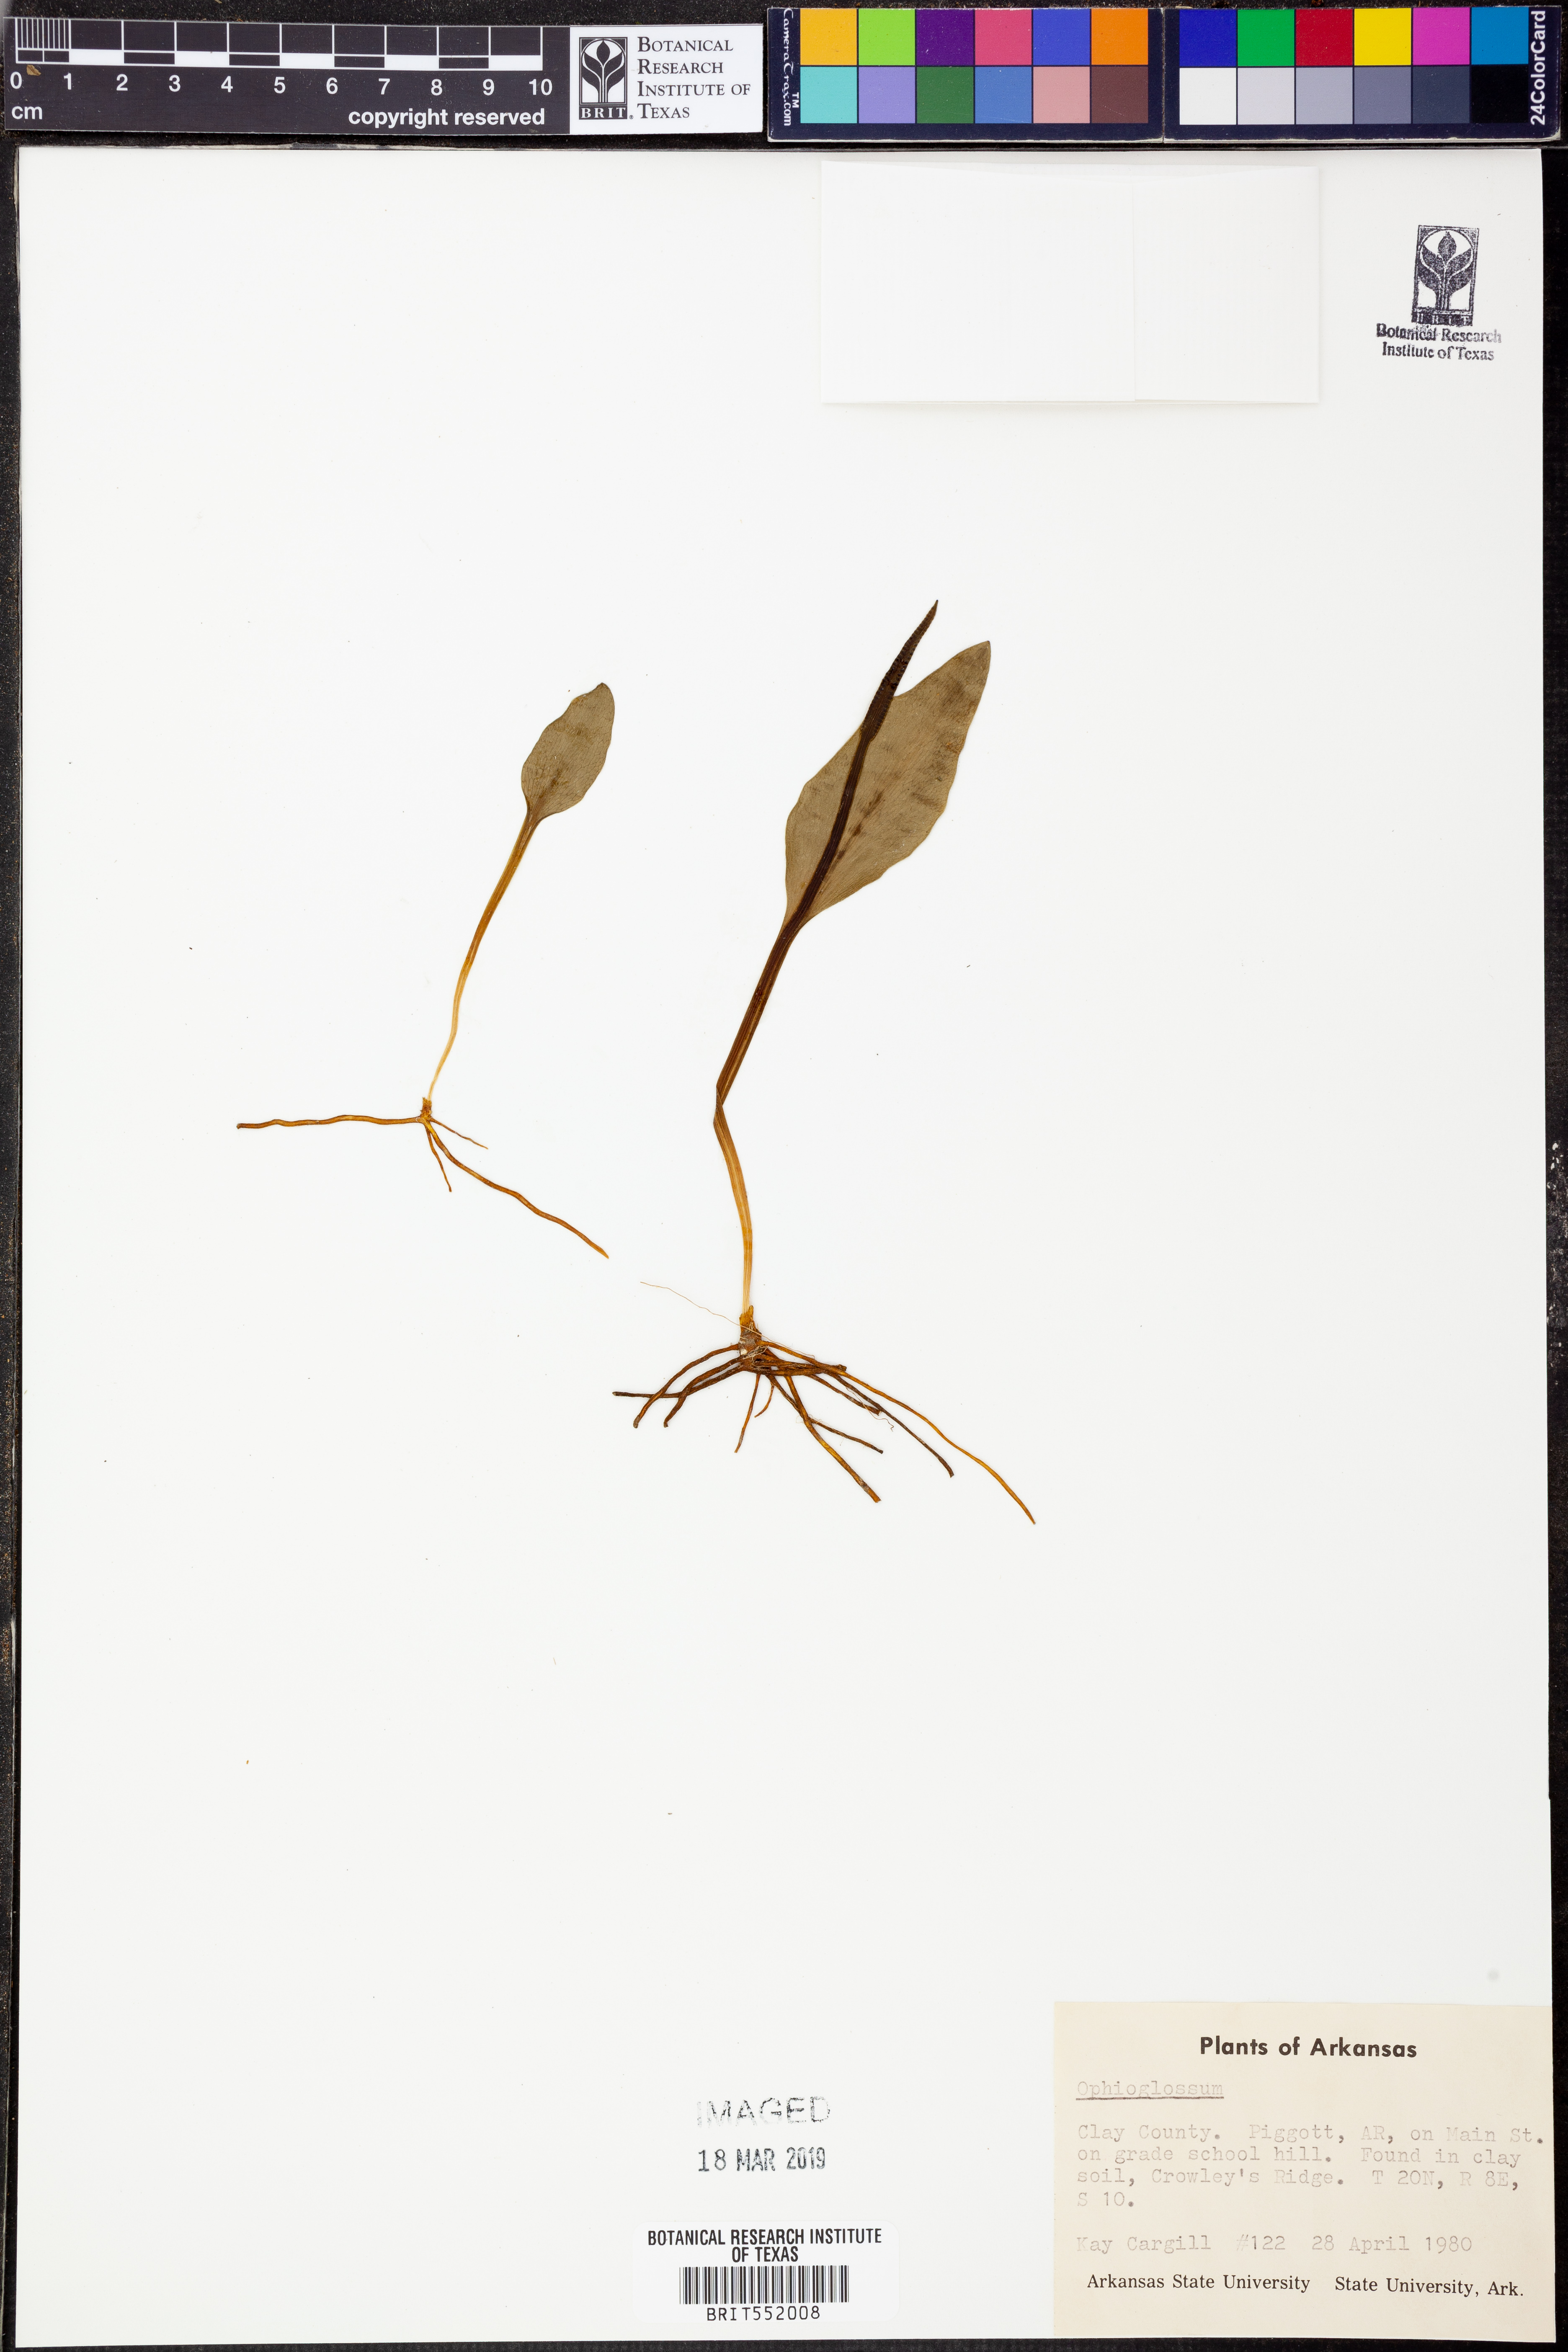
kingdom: Plantae
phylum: Tracheophyta
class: Polypodiopsida
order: Ophioglossales
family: Ophioglossaceae
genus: Ophioglossum
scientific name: Ophioglossum
